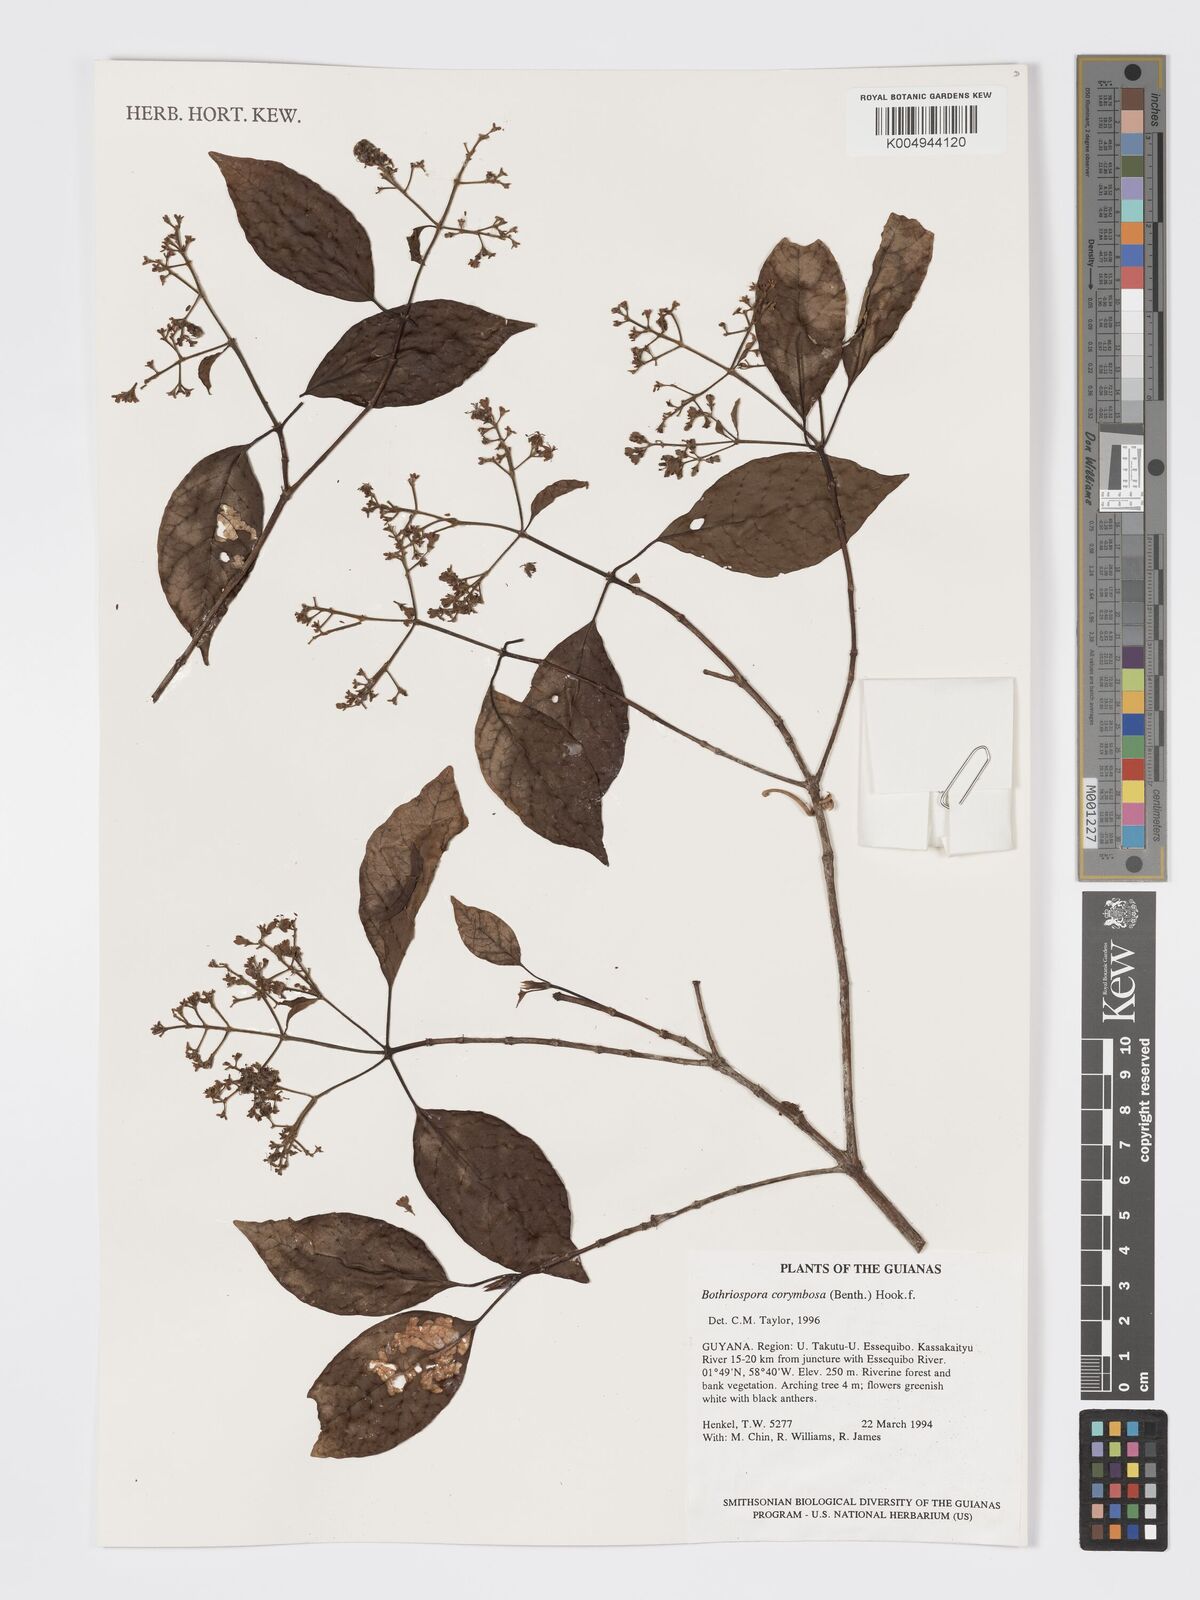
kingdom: Plantae
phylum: Tracheophyta
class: Magnoliopsida
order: Gentianales
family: Rubiaceae
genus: Bothriospora
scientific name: Bothriospora corymbosa
